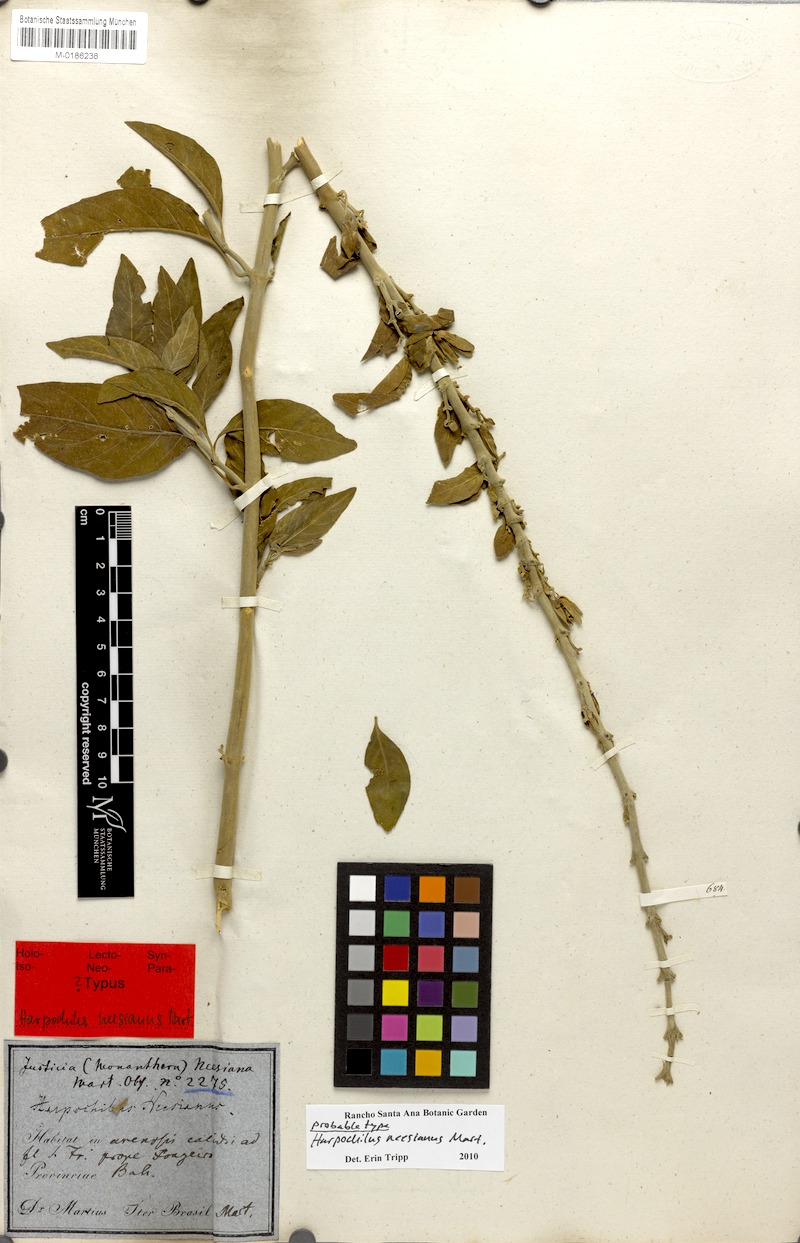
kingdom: Plantae
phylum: Tracheophyta
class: Magnoliopsida
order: Lamiales
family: Acanthaceae
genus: Harpochilus
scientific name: Harpochilus neesianus
